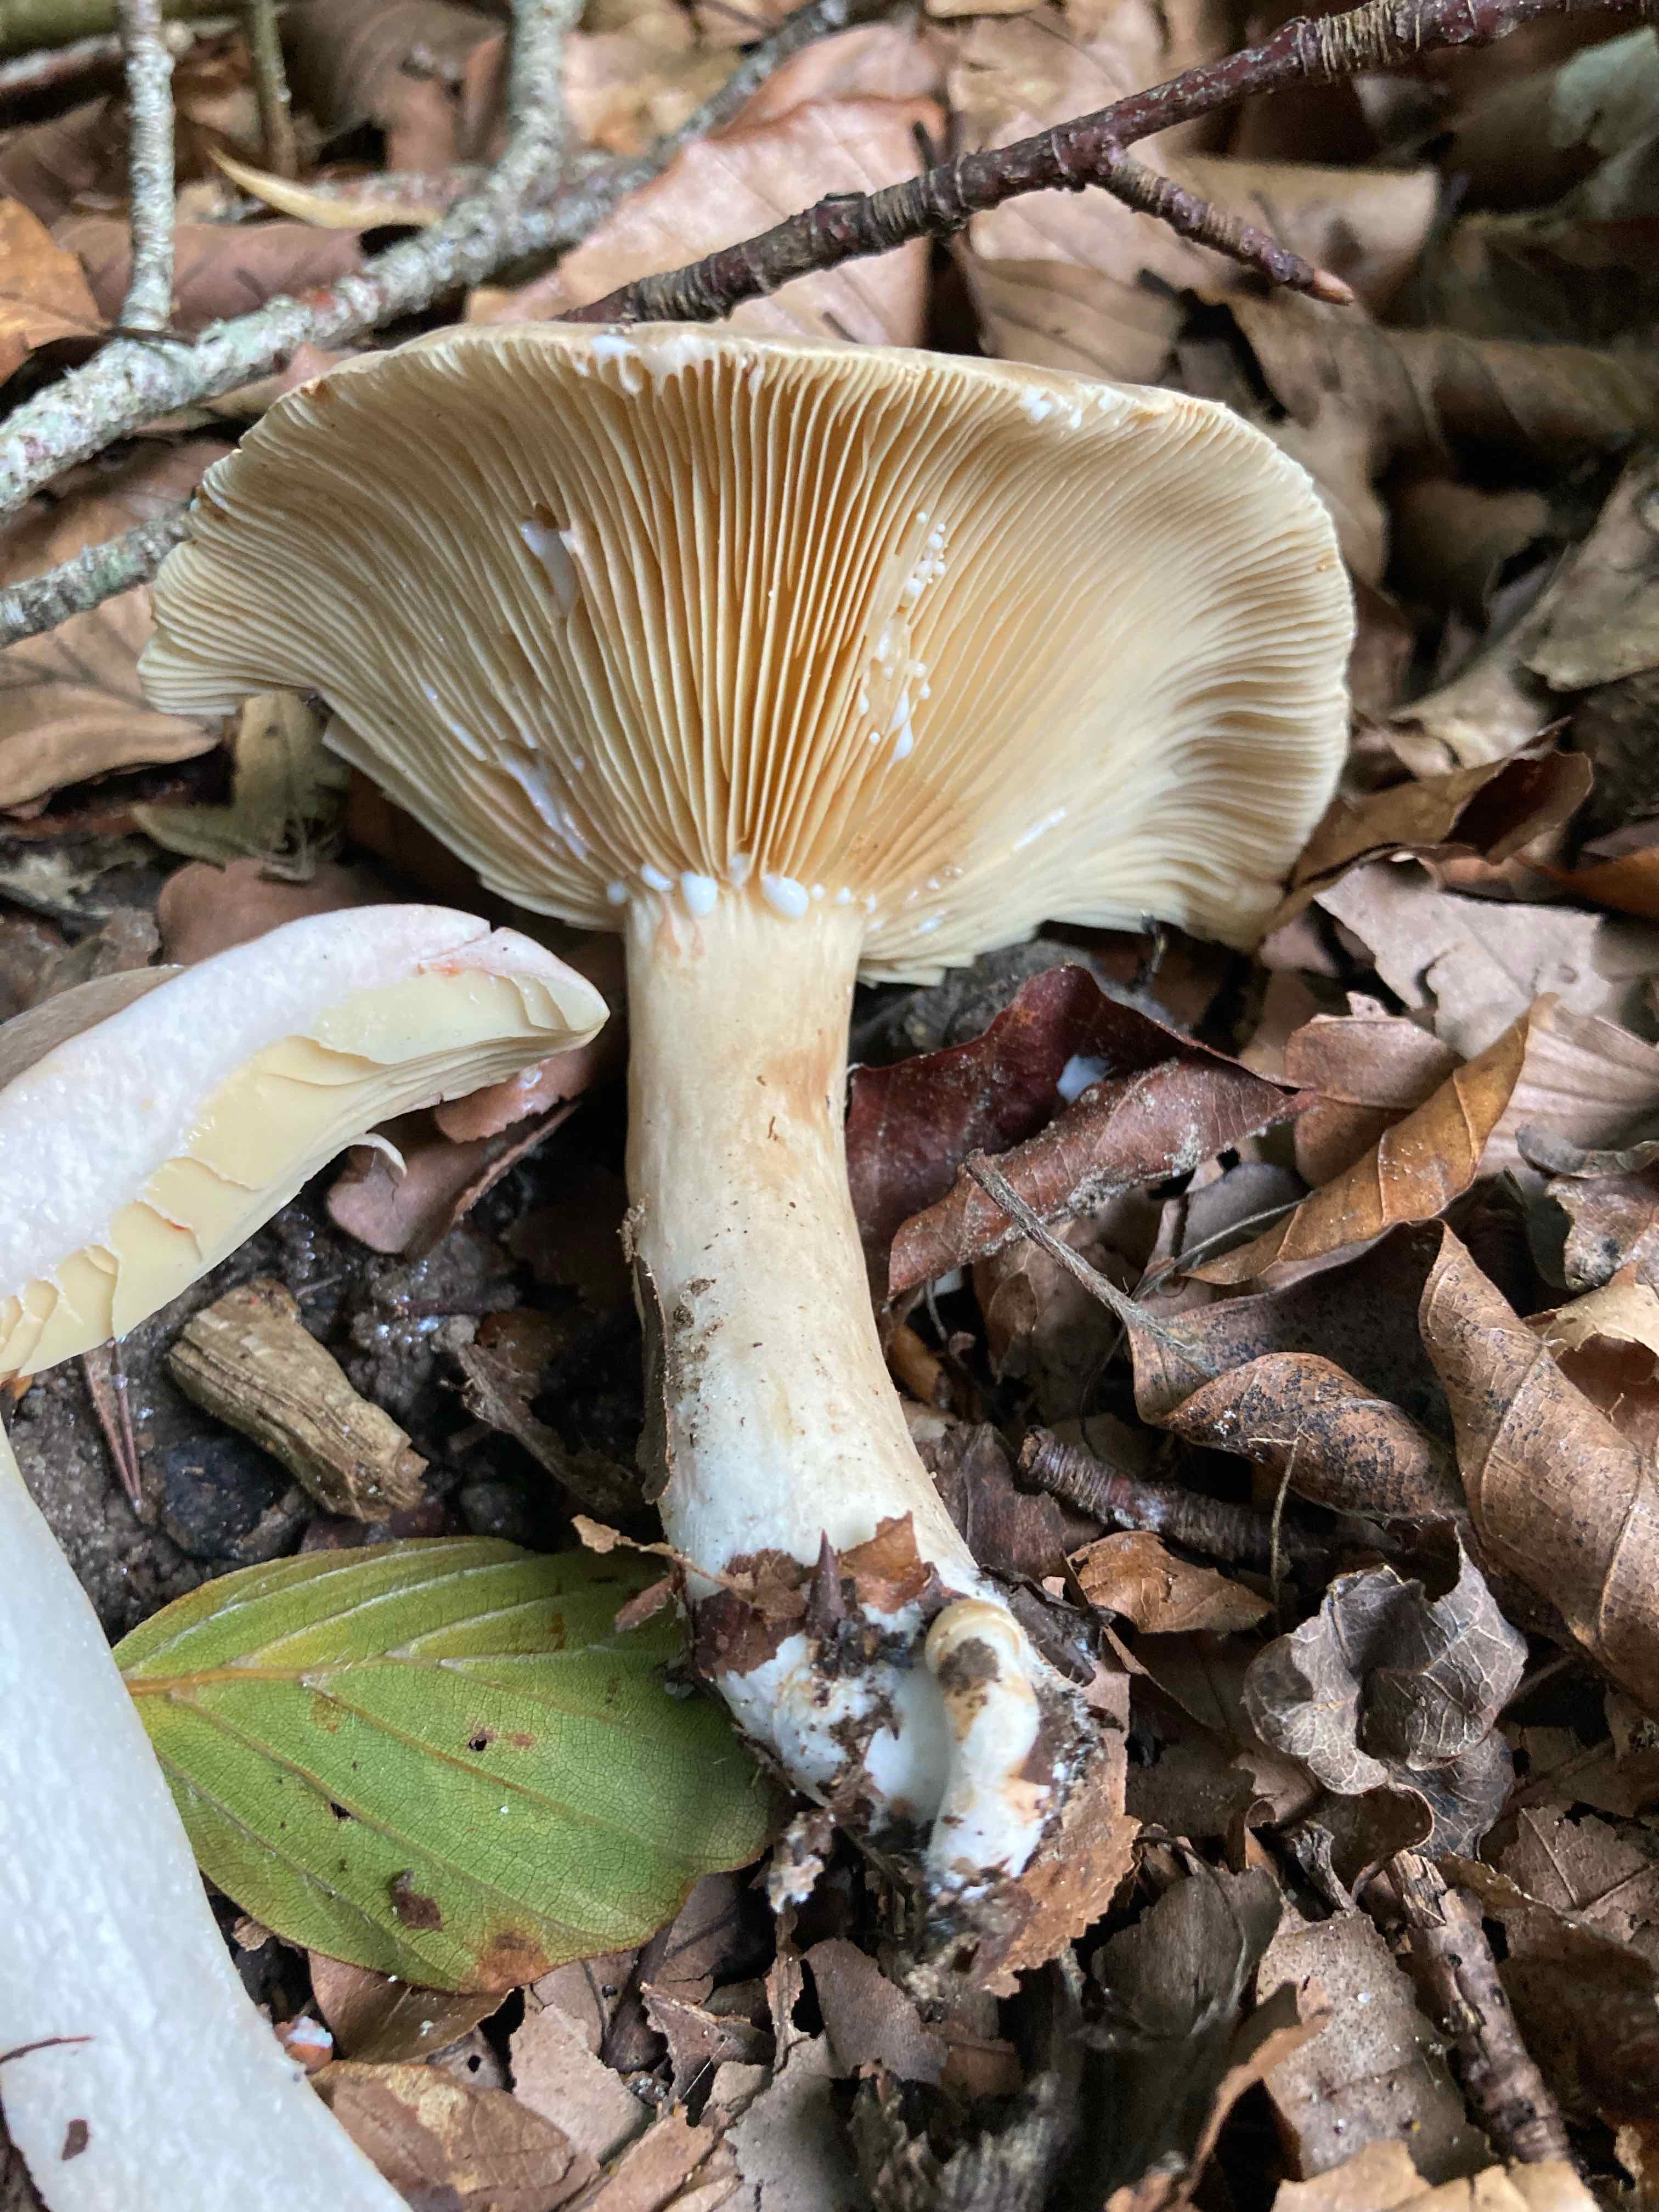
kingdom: Fungi
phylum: Basidiomycota
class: Agaricomycetes
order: Russulales
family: Russulaceae
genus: Lactarius
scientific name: Lactarius pterosporus
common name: vingesporet mælkehat
